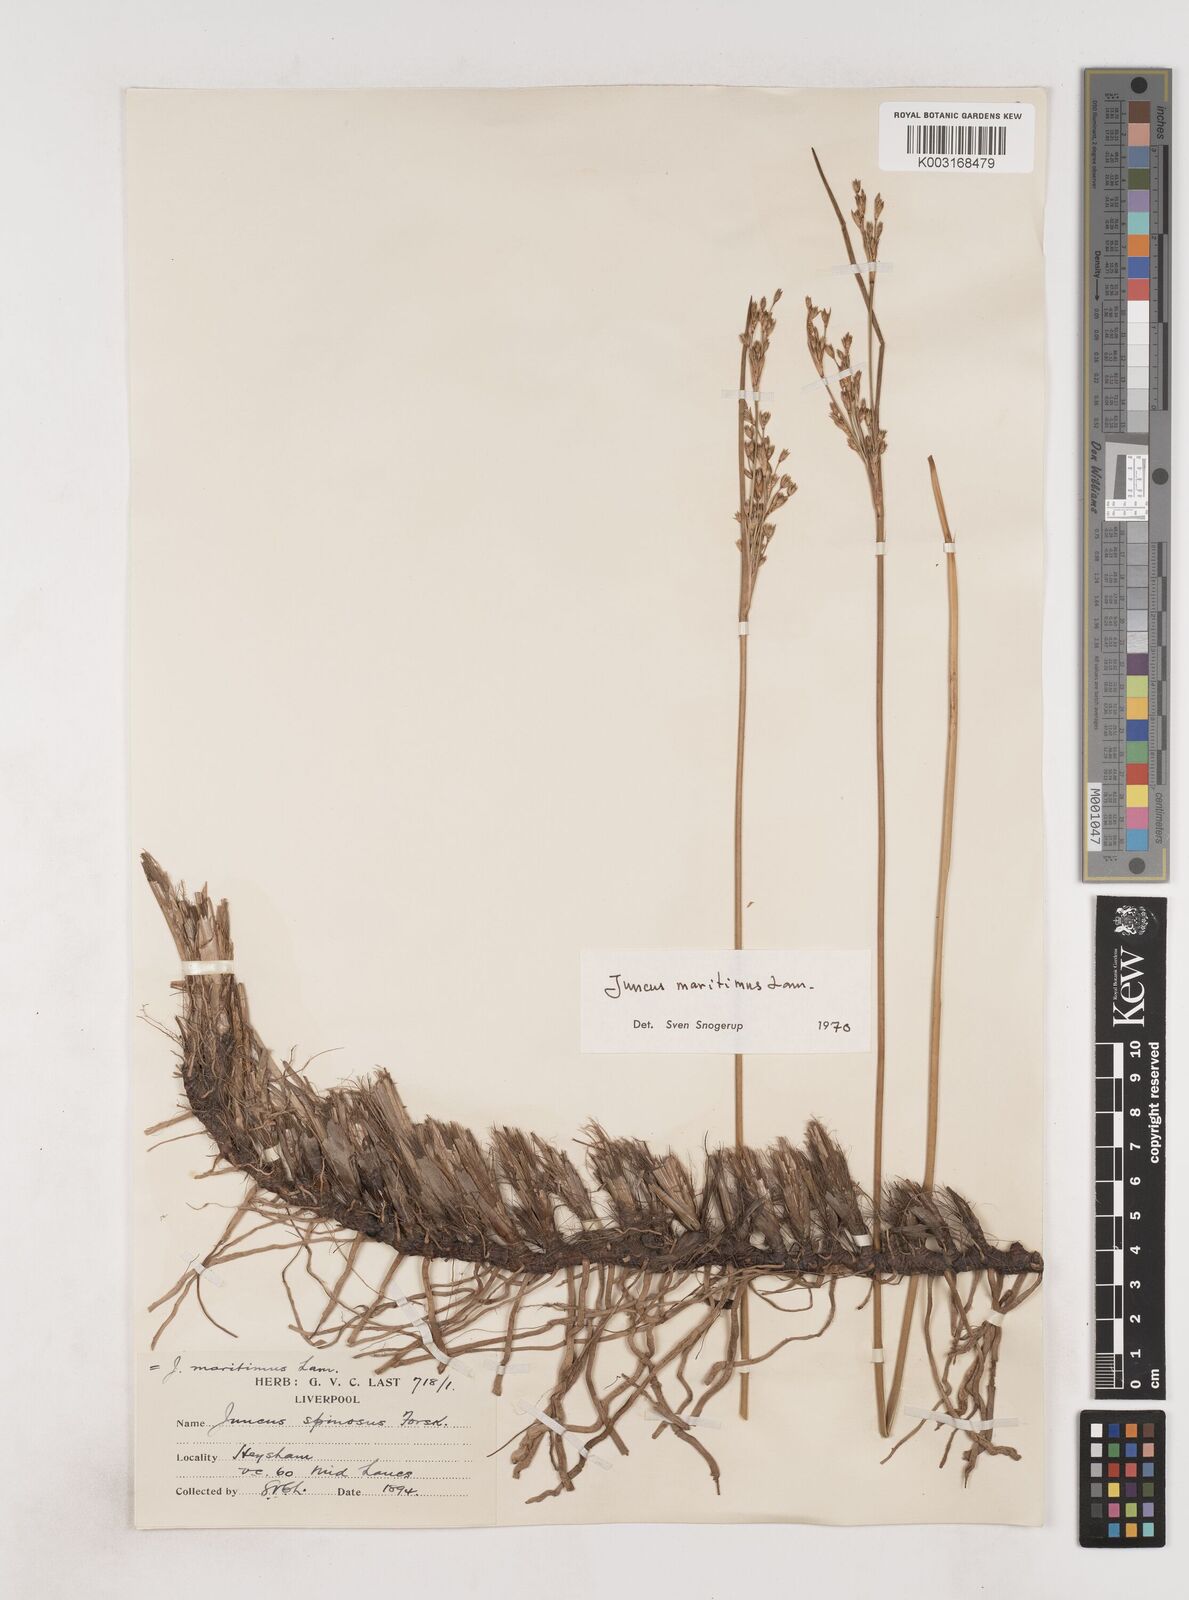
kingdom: Plantae
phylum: Tracheophyta
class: Liliopsida
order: Poales
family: Juncaceae
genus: Juncus
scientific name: Juncus maritimus
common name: Sea rush
